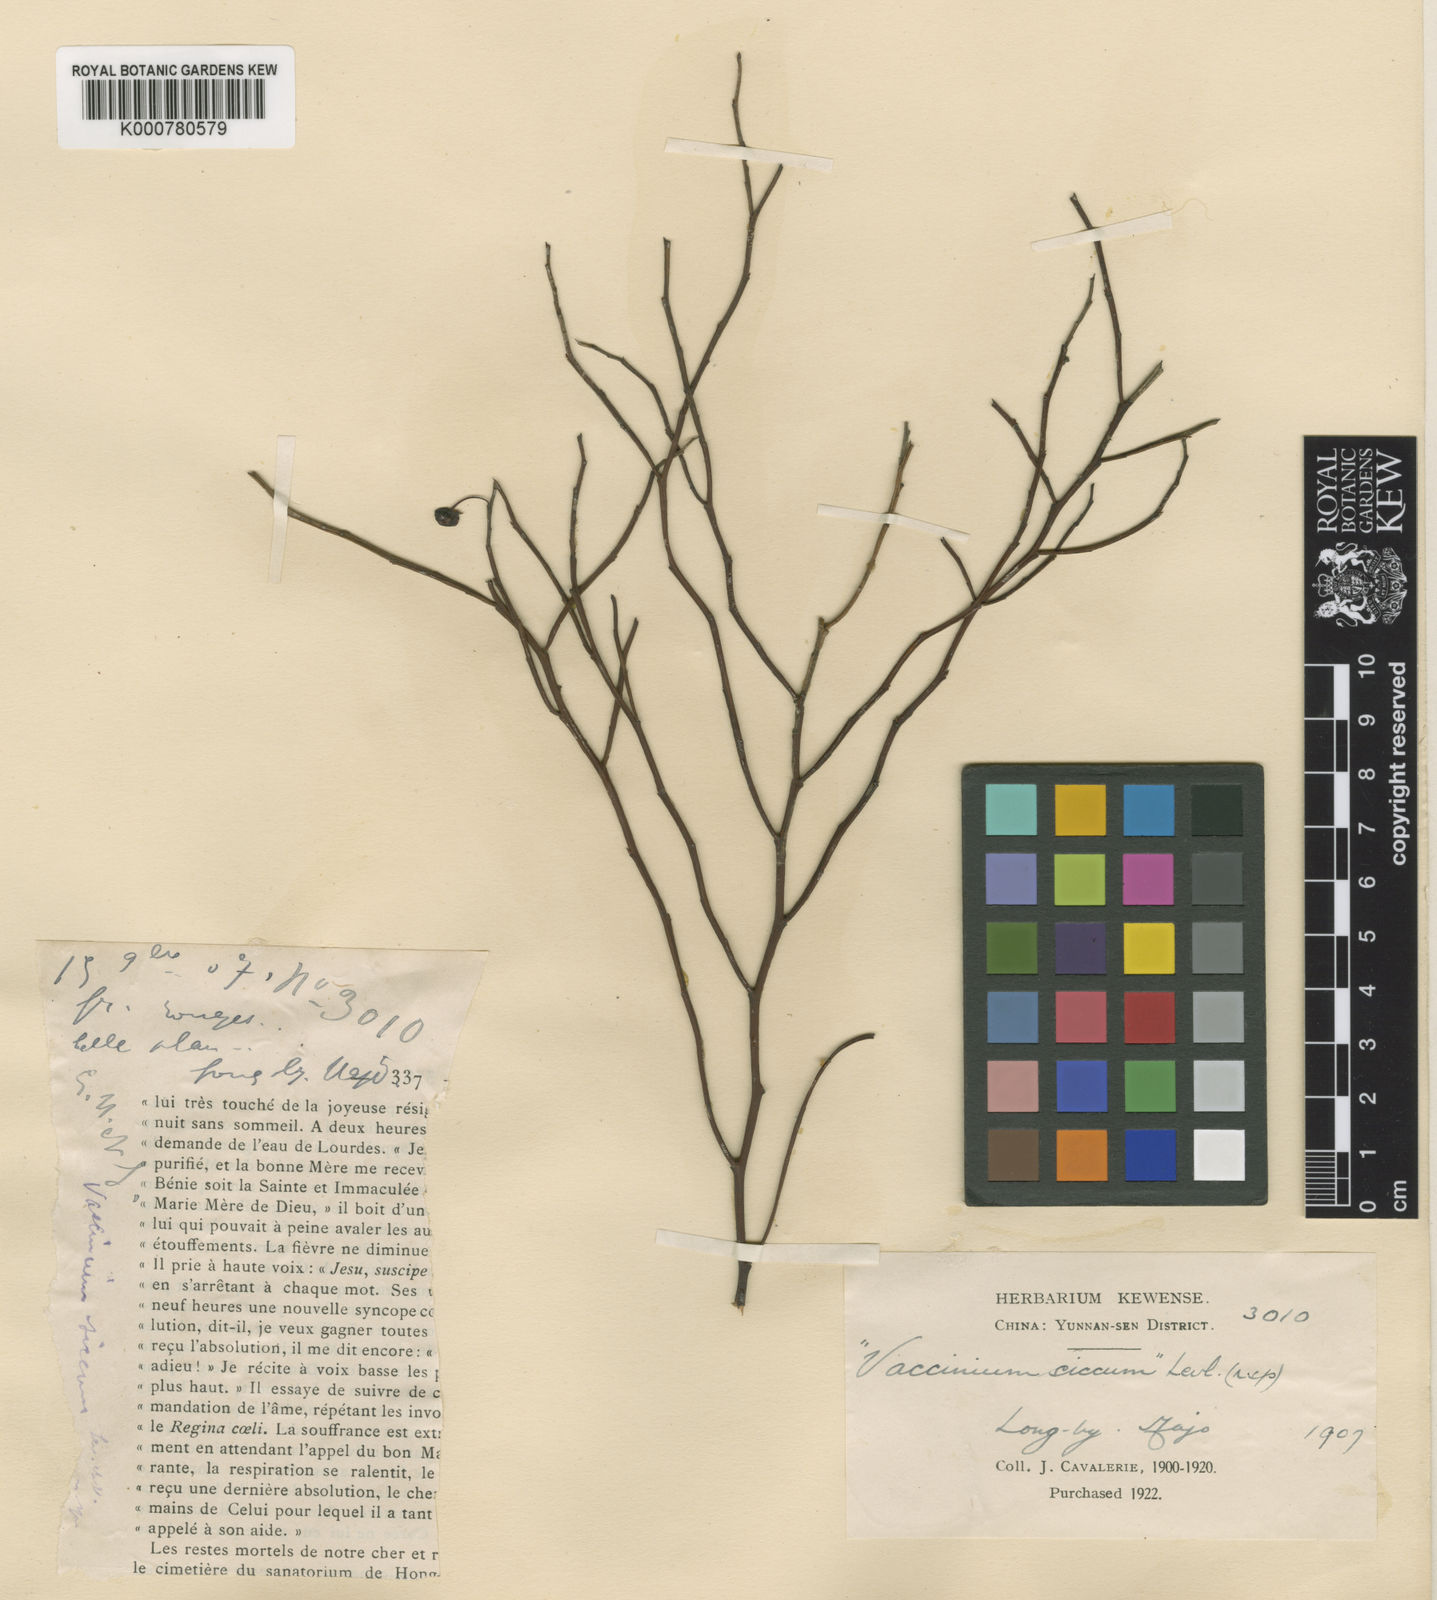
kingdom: Plantae
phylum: Tracheophyta
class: Magnoliopsida
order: Ericales
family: Ericaceae
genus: Vaccinium
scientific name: Vaccinium japonicum
